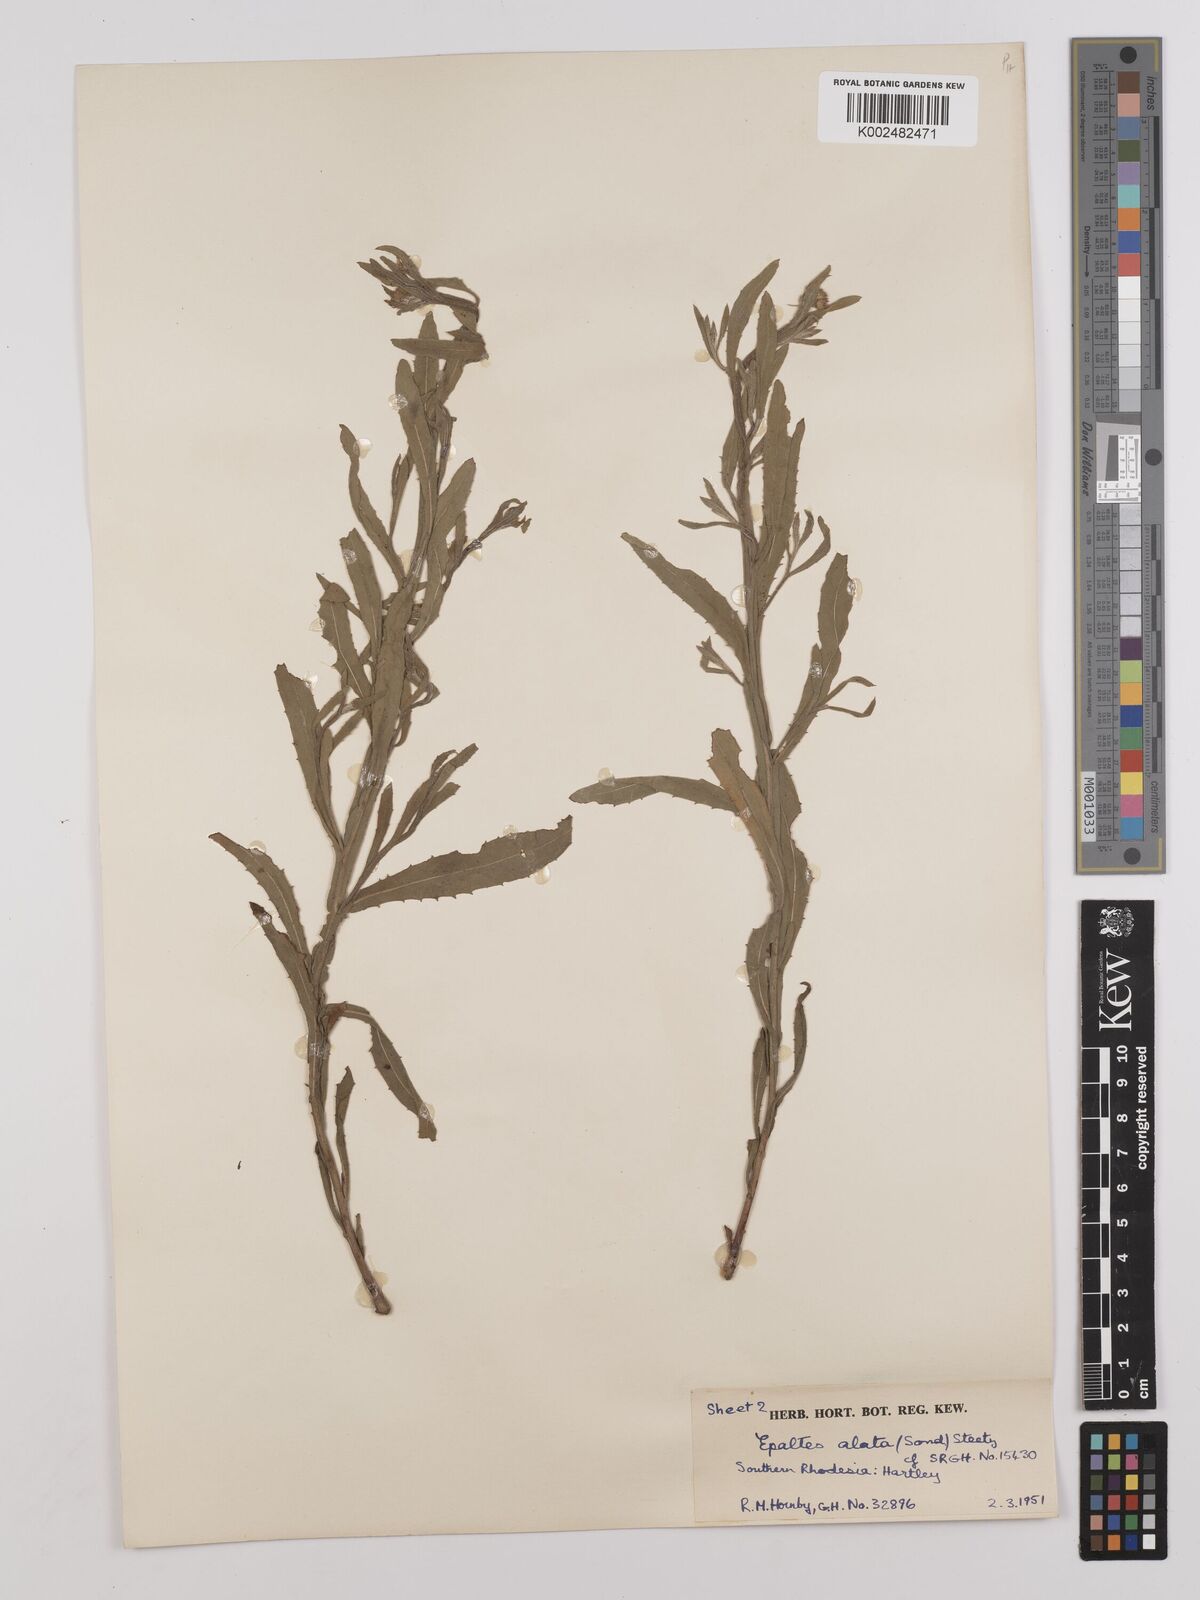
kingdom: Plantae
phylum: Tracheophyta
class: Magnoliopsida
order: Asterales
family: Asteraceae
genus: Litogyne
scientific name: Litogyne gariepina
